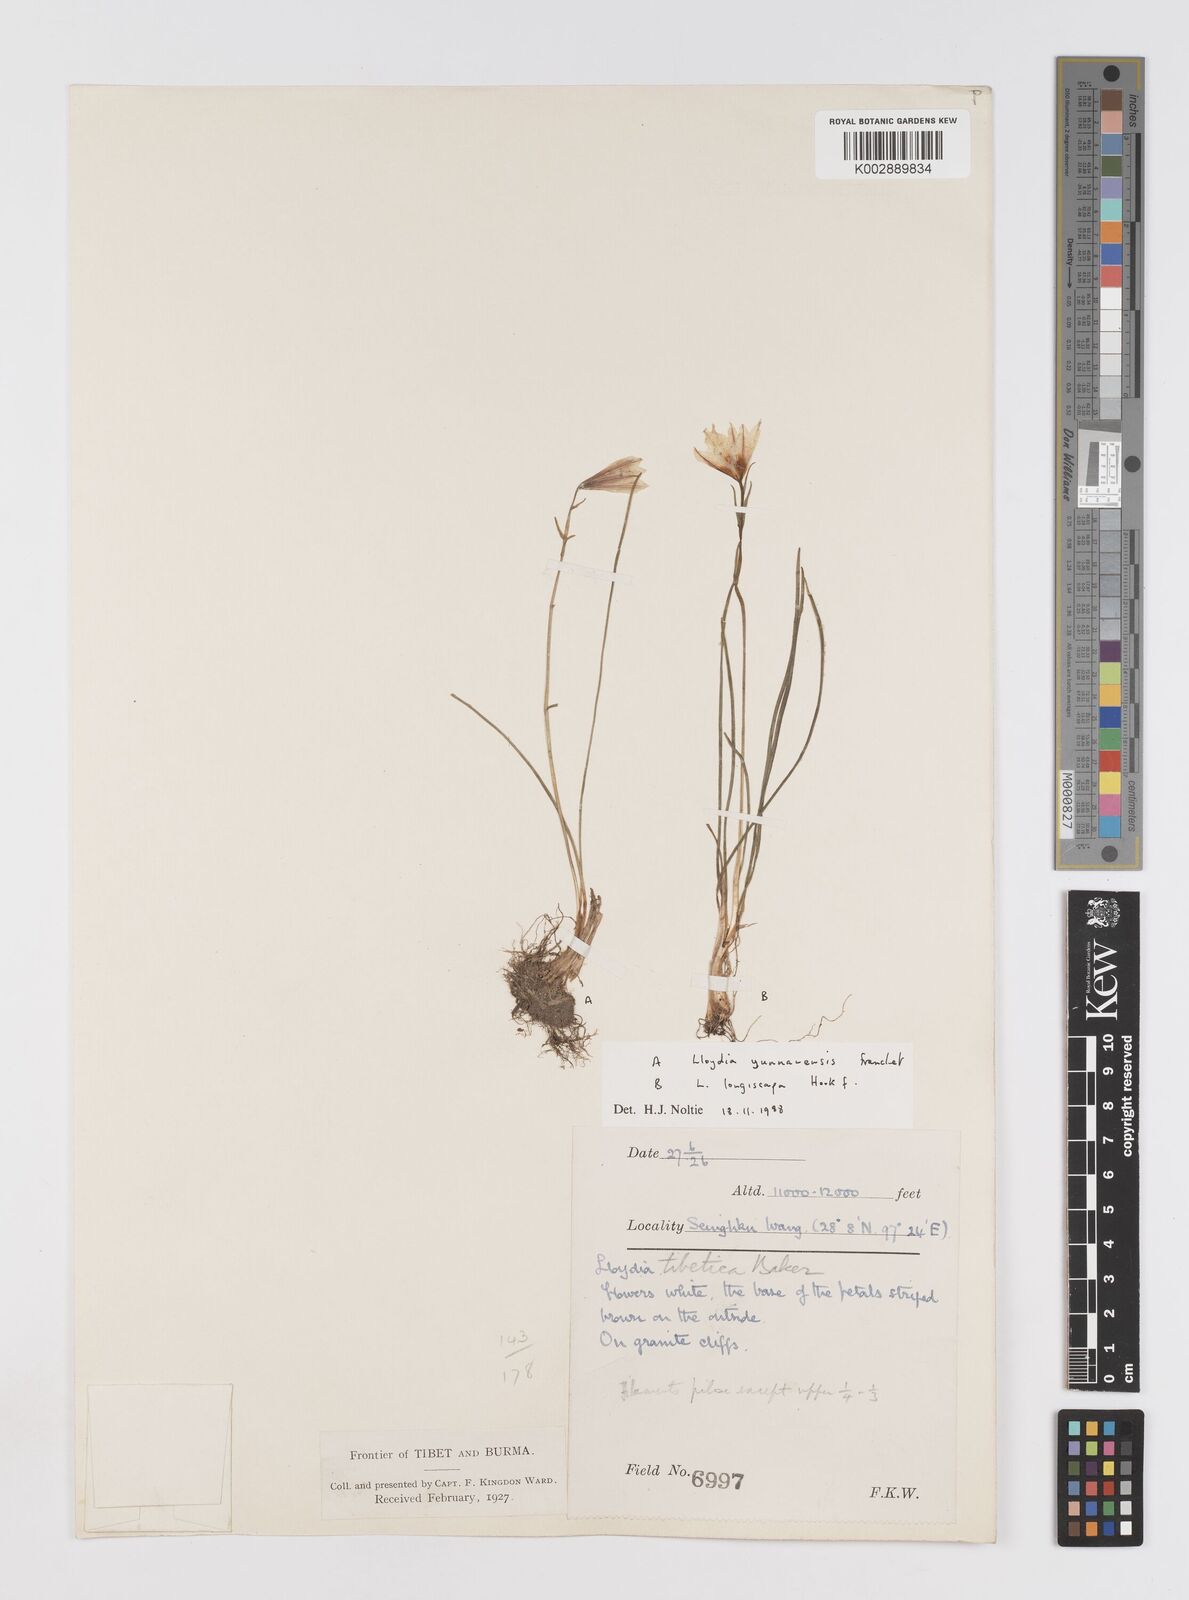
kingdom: Plantae
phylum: Tracheophyta
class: Liliopsida
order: Liliales
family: Liliaceae
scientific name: Liliaceae
